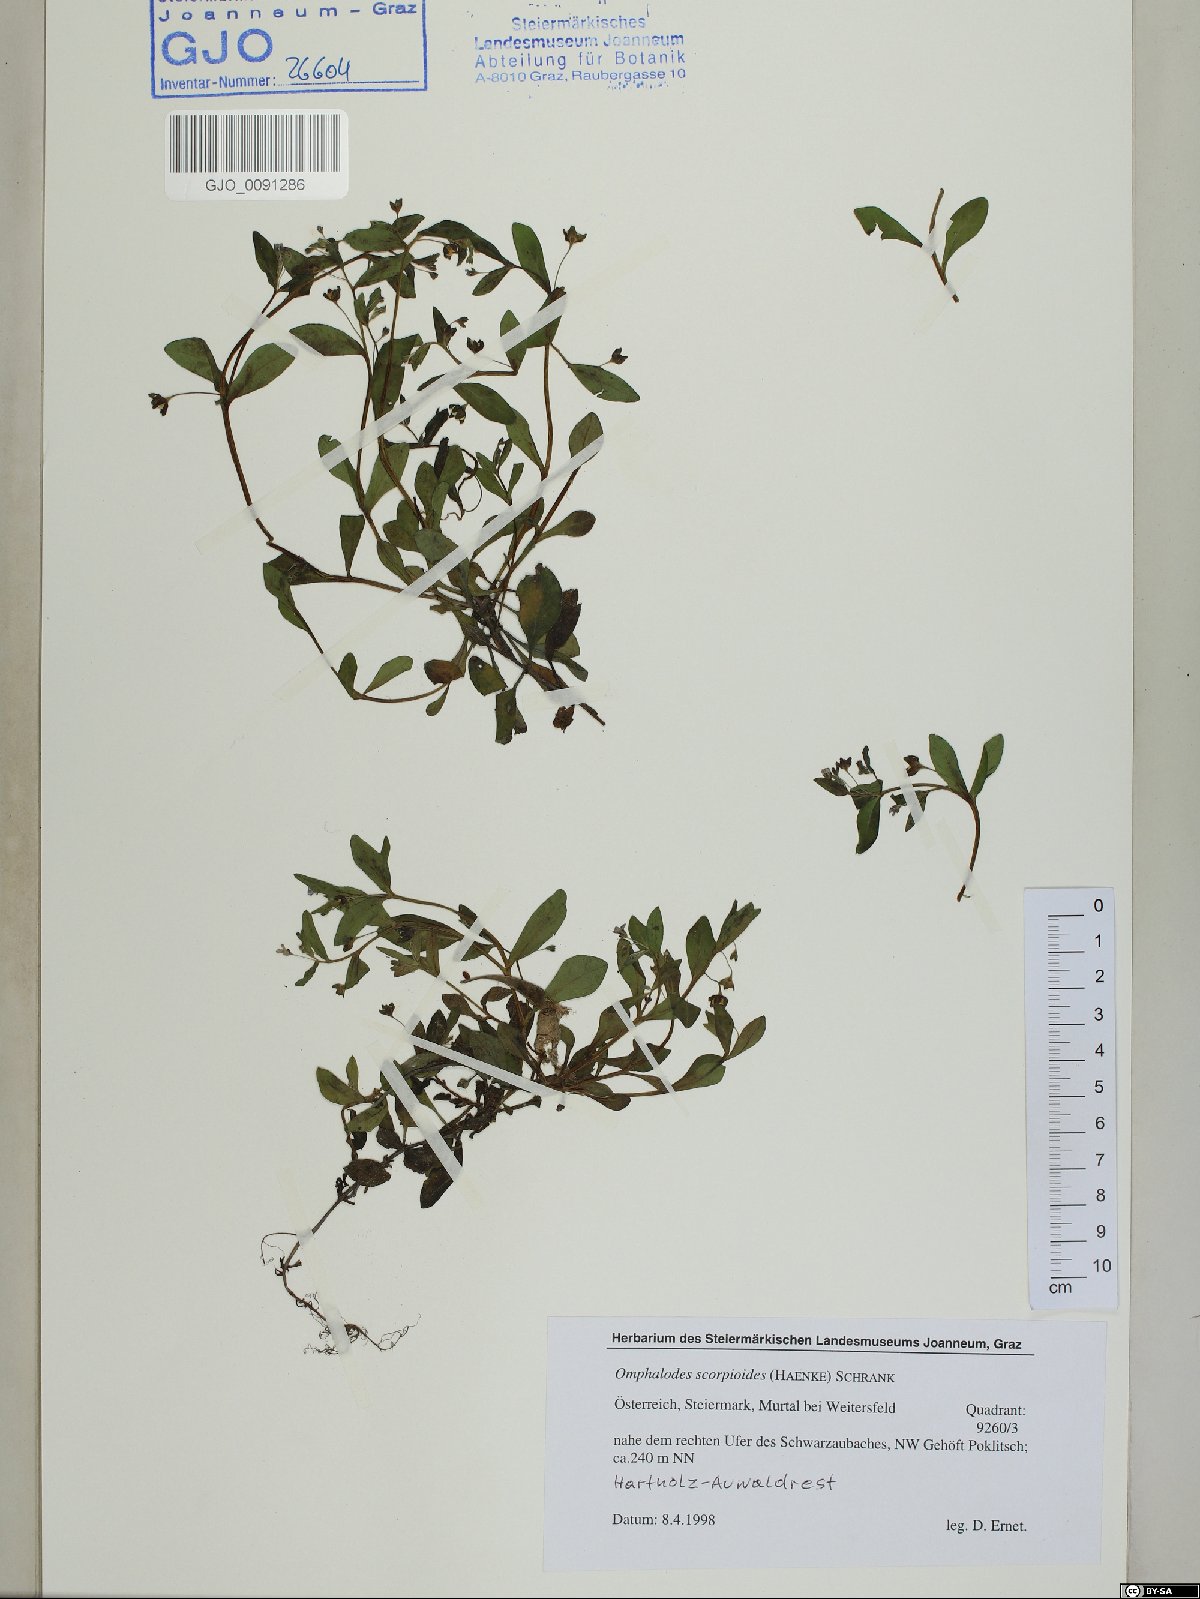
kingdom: Plantae
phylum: Tracheophyta
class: Magnoliopsida
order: Boraginales
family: Boraginaceae
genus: Memoremea
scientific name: Memoremea scorpioides
